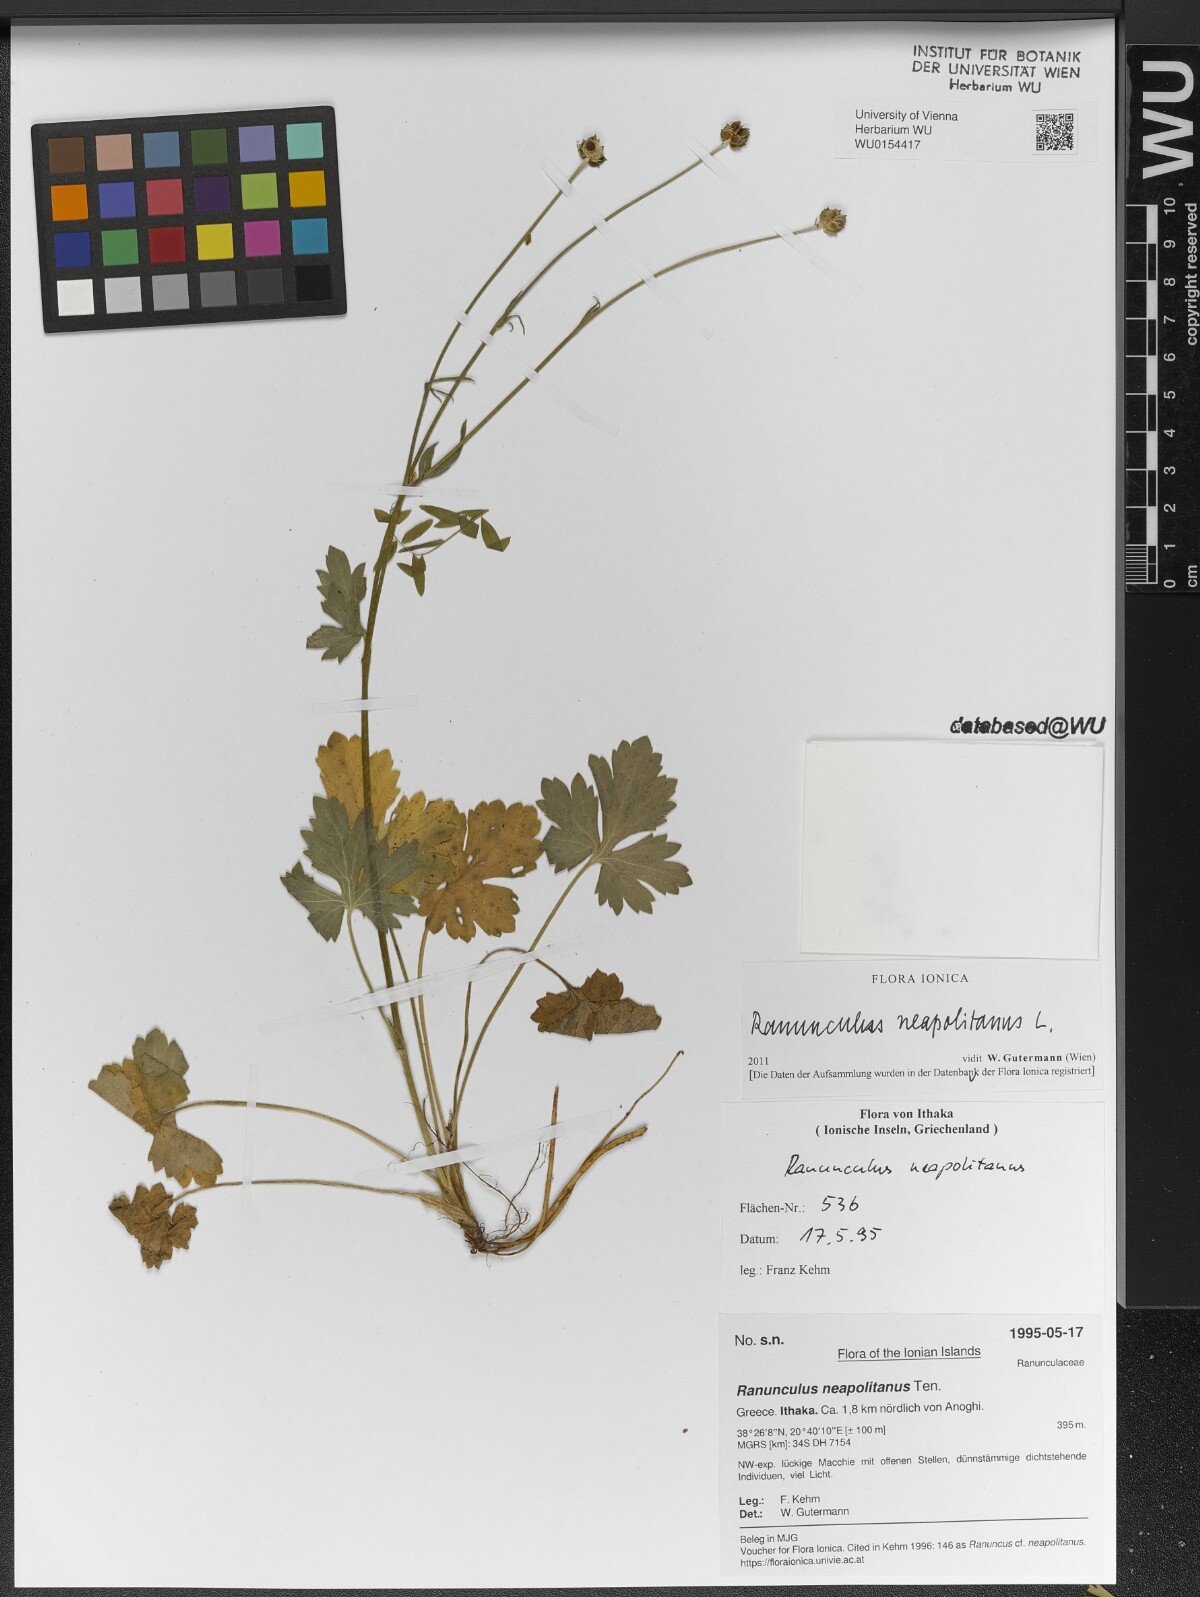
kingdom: Plantae
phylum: Tracheophyta
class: Magnoliopsida
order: Ranunculales
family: Ranunculaceae
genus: Ranunculus
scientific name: Ranunculus neapolitanus
